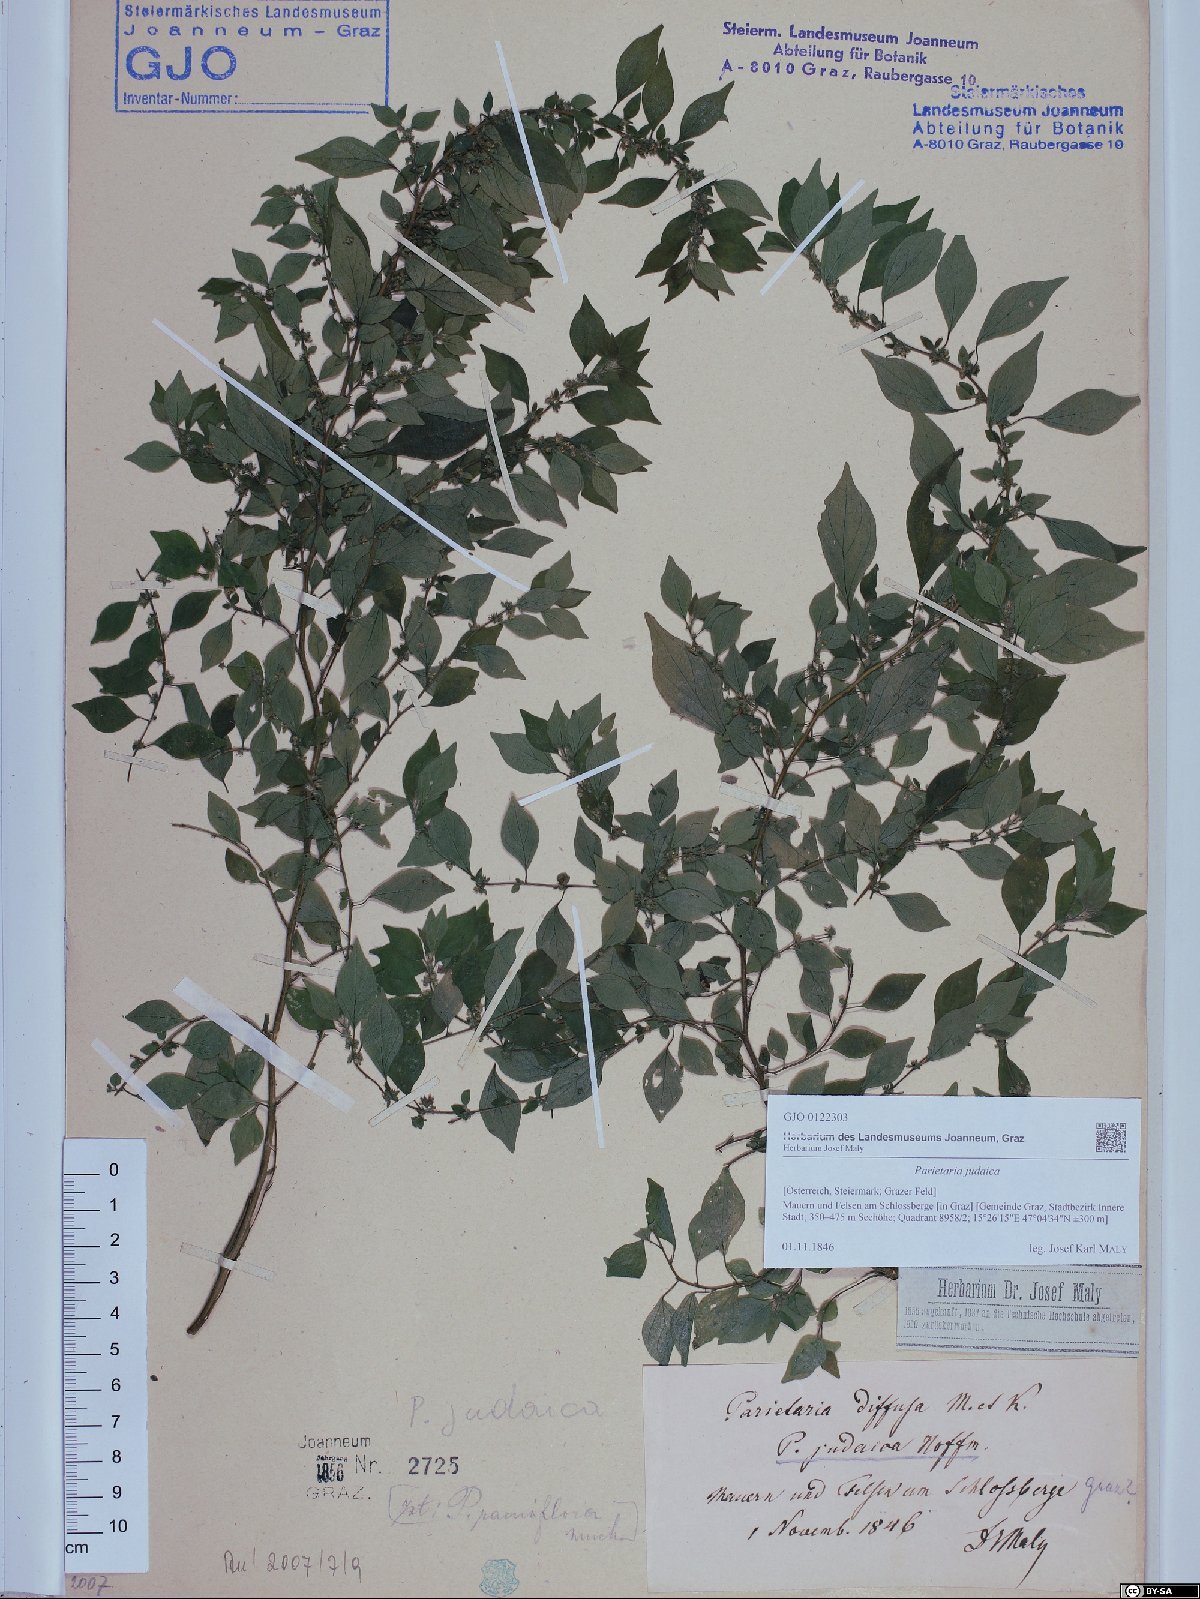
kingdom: Plantae
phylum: Tracheophyta
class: Magnoliopsida
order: Rosales
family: Urticaceae
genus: Parietaria
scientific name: Parietaria judaica
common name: Pellitory-of-the-wall
